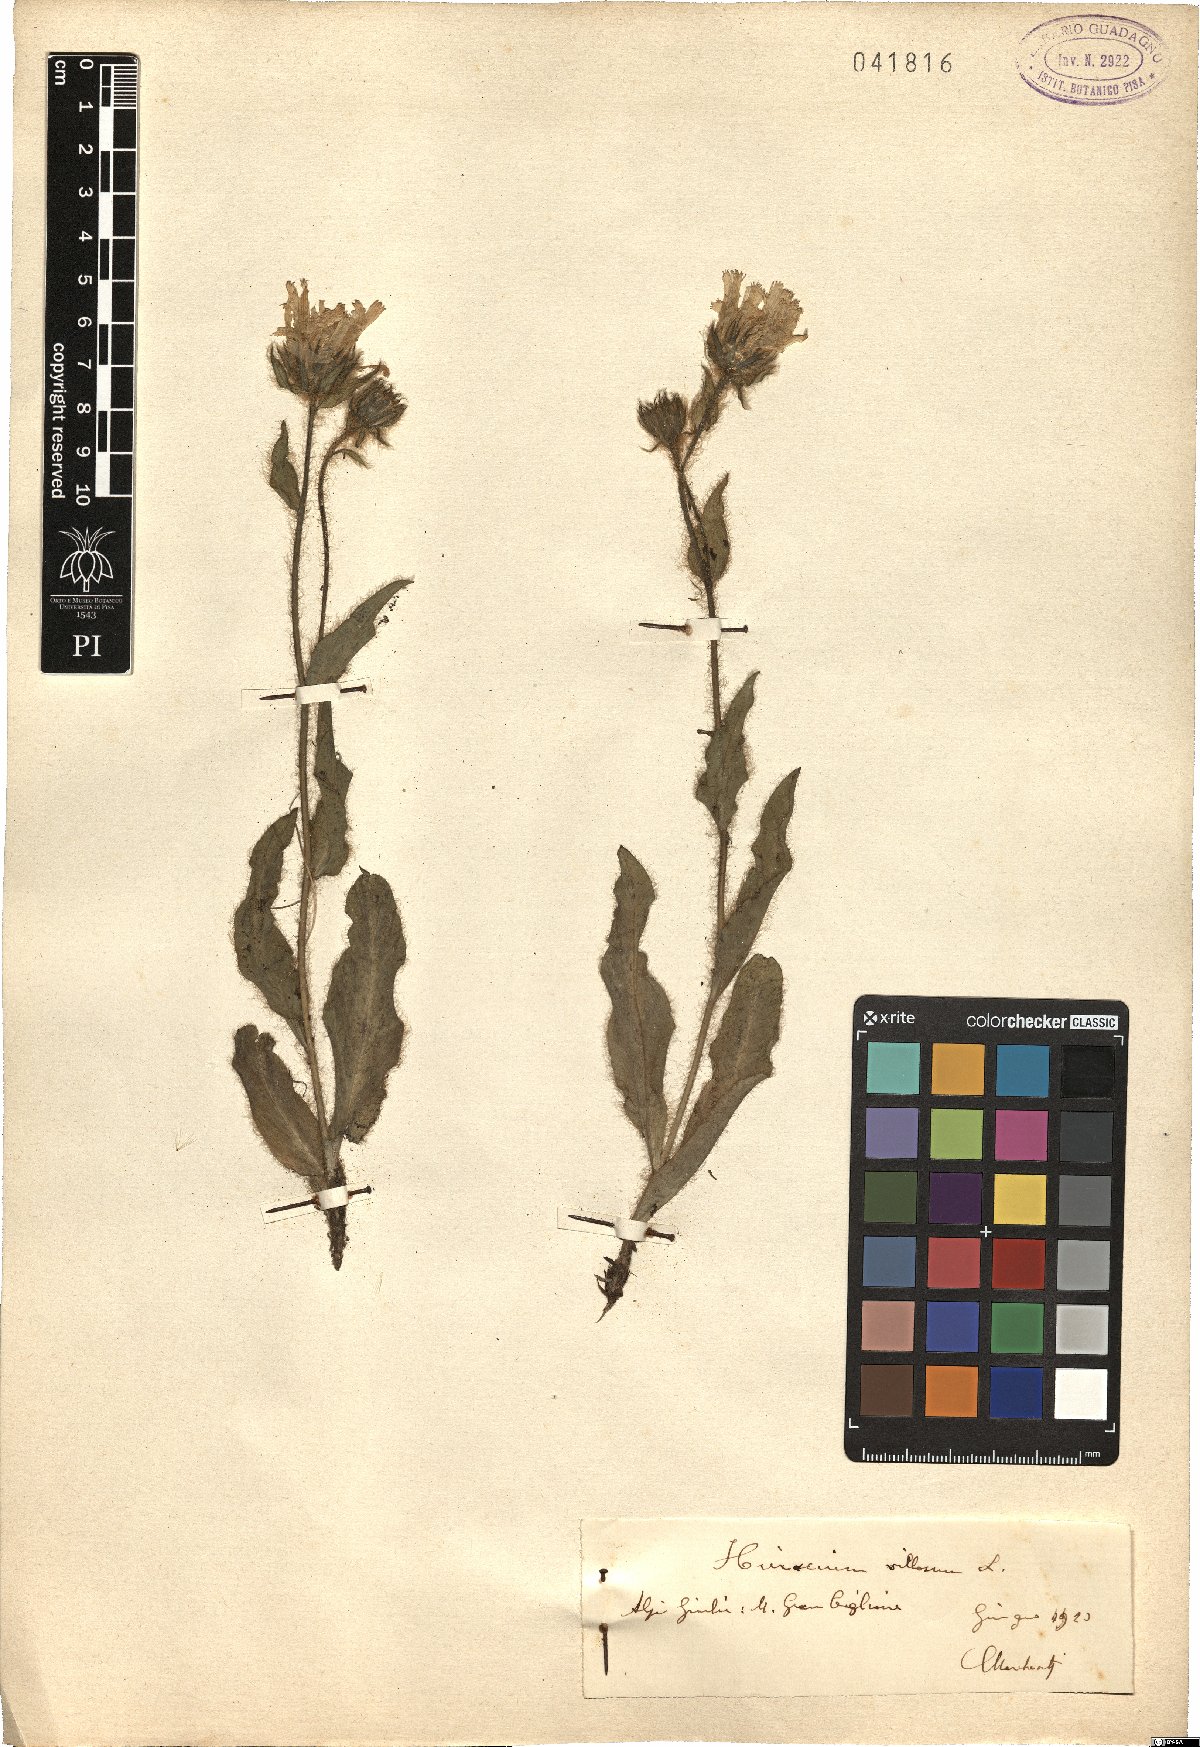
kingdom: Plantae
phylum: Tracheophyta
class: Magnoliopsida
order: Asterales
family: Asteraceae
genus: Hieracium
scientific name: Hieracium villosum
